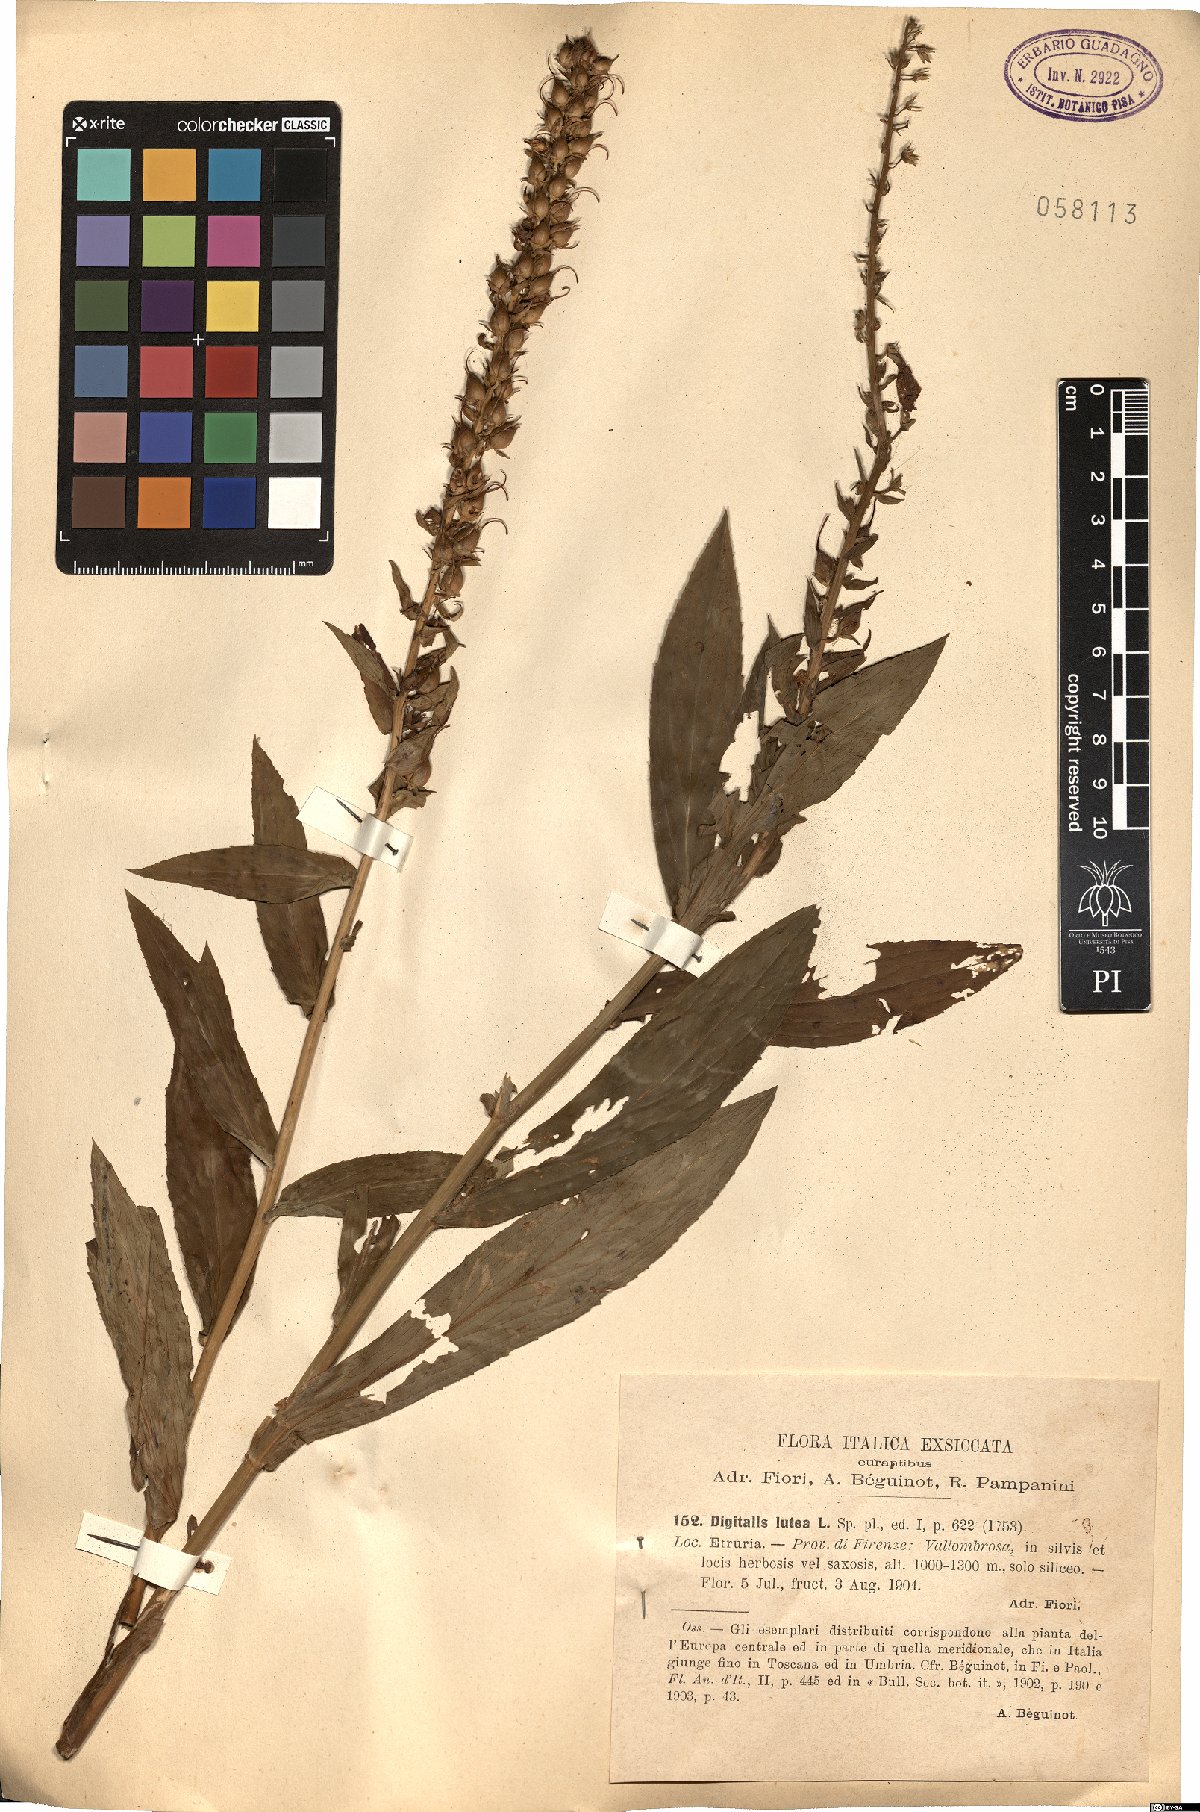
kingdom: Plantae
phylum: Tracheophyta
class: Magnoliopsida
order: Lamiales
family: Plantaginaceae
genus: Digitalis
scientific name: Digitalis lutea
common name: Straw foxglove
